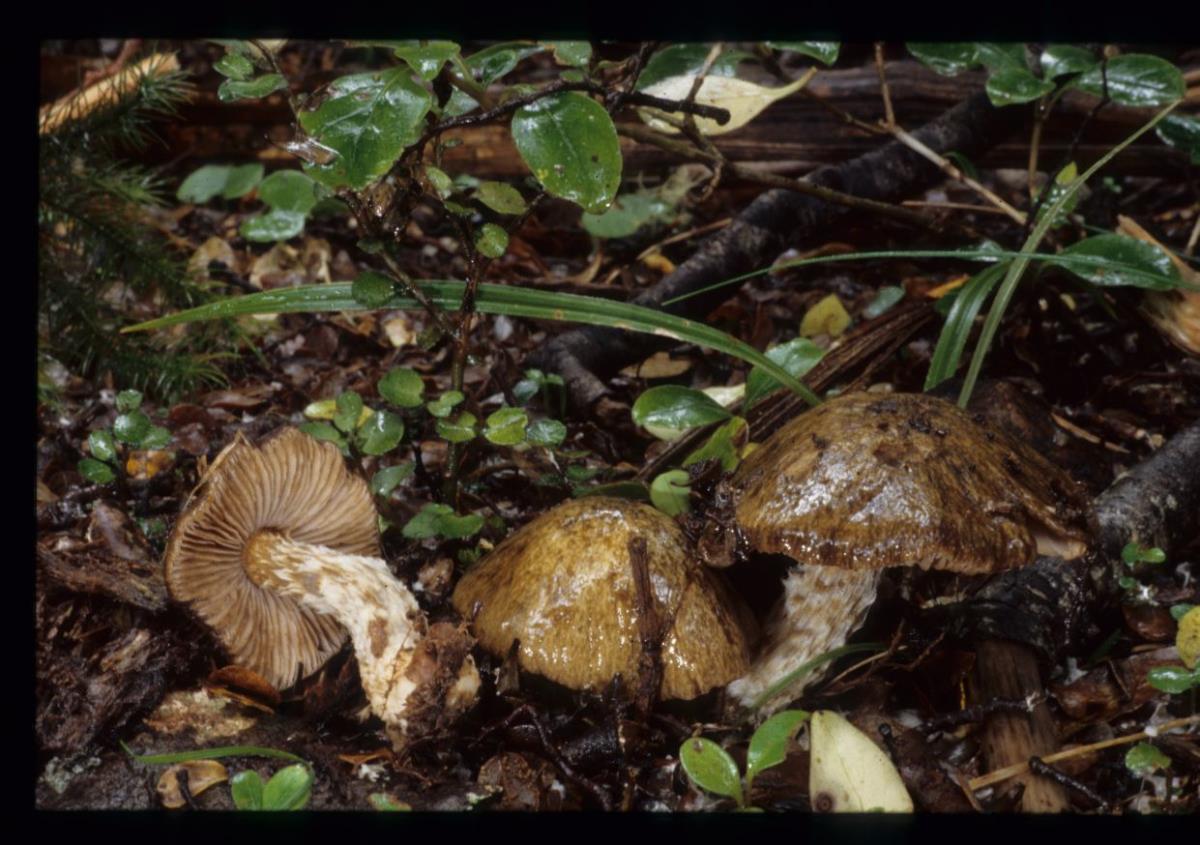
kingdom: Fungi
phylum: Basidiomycota
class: Agaricomycetes
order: Agaricales
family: Cortinariaceae
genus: Cortinarius
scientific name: Cortinarius
